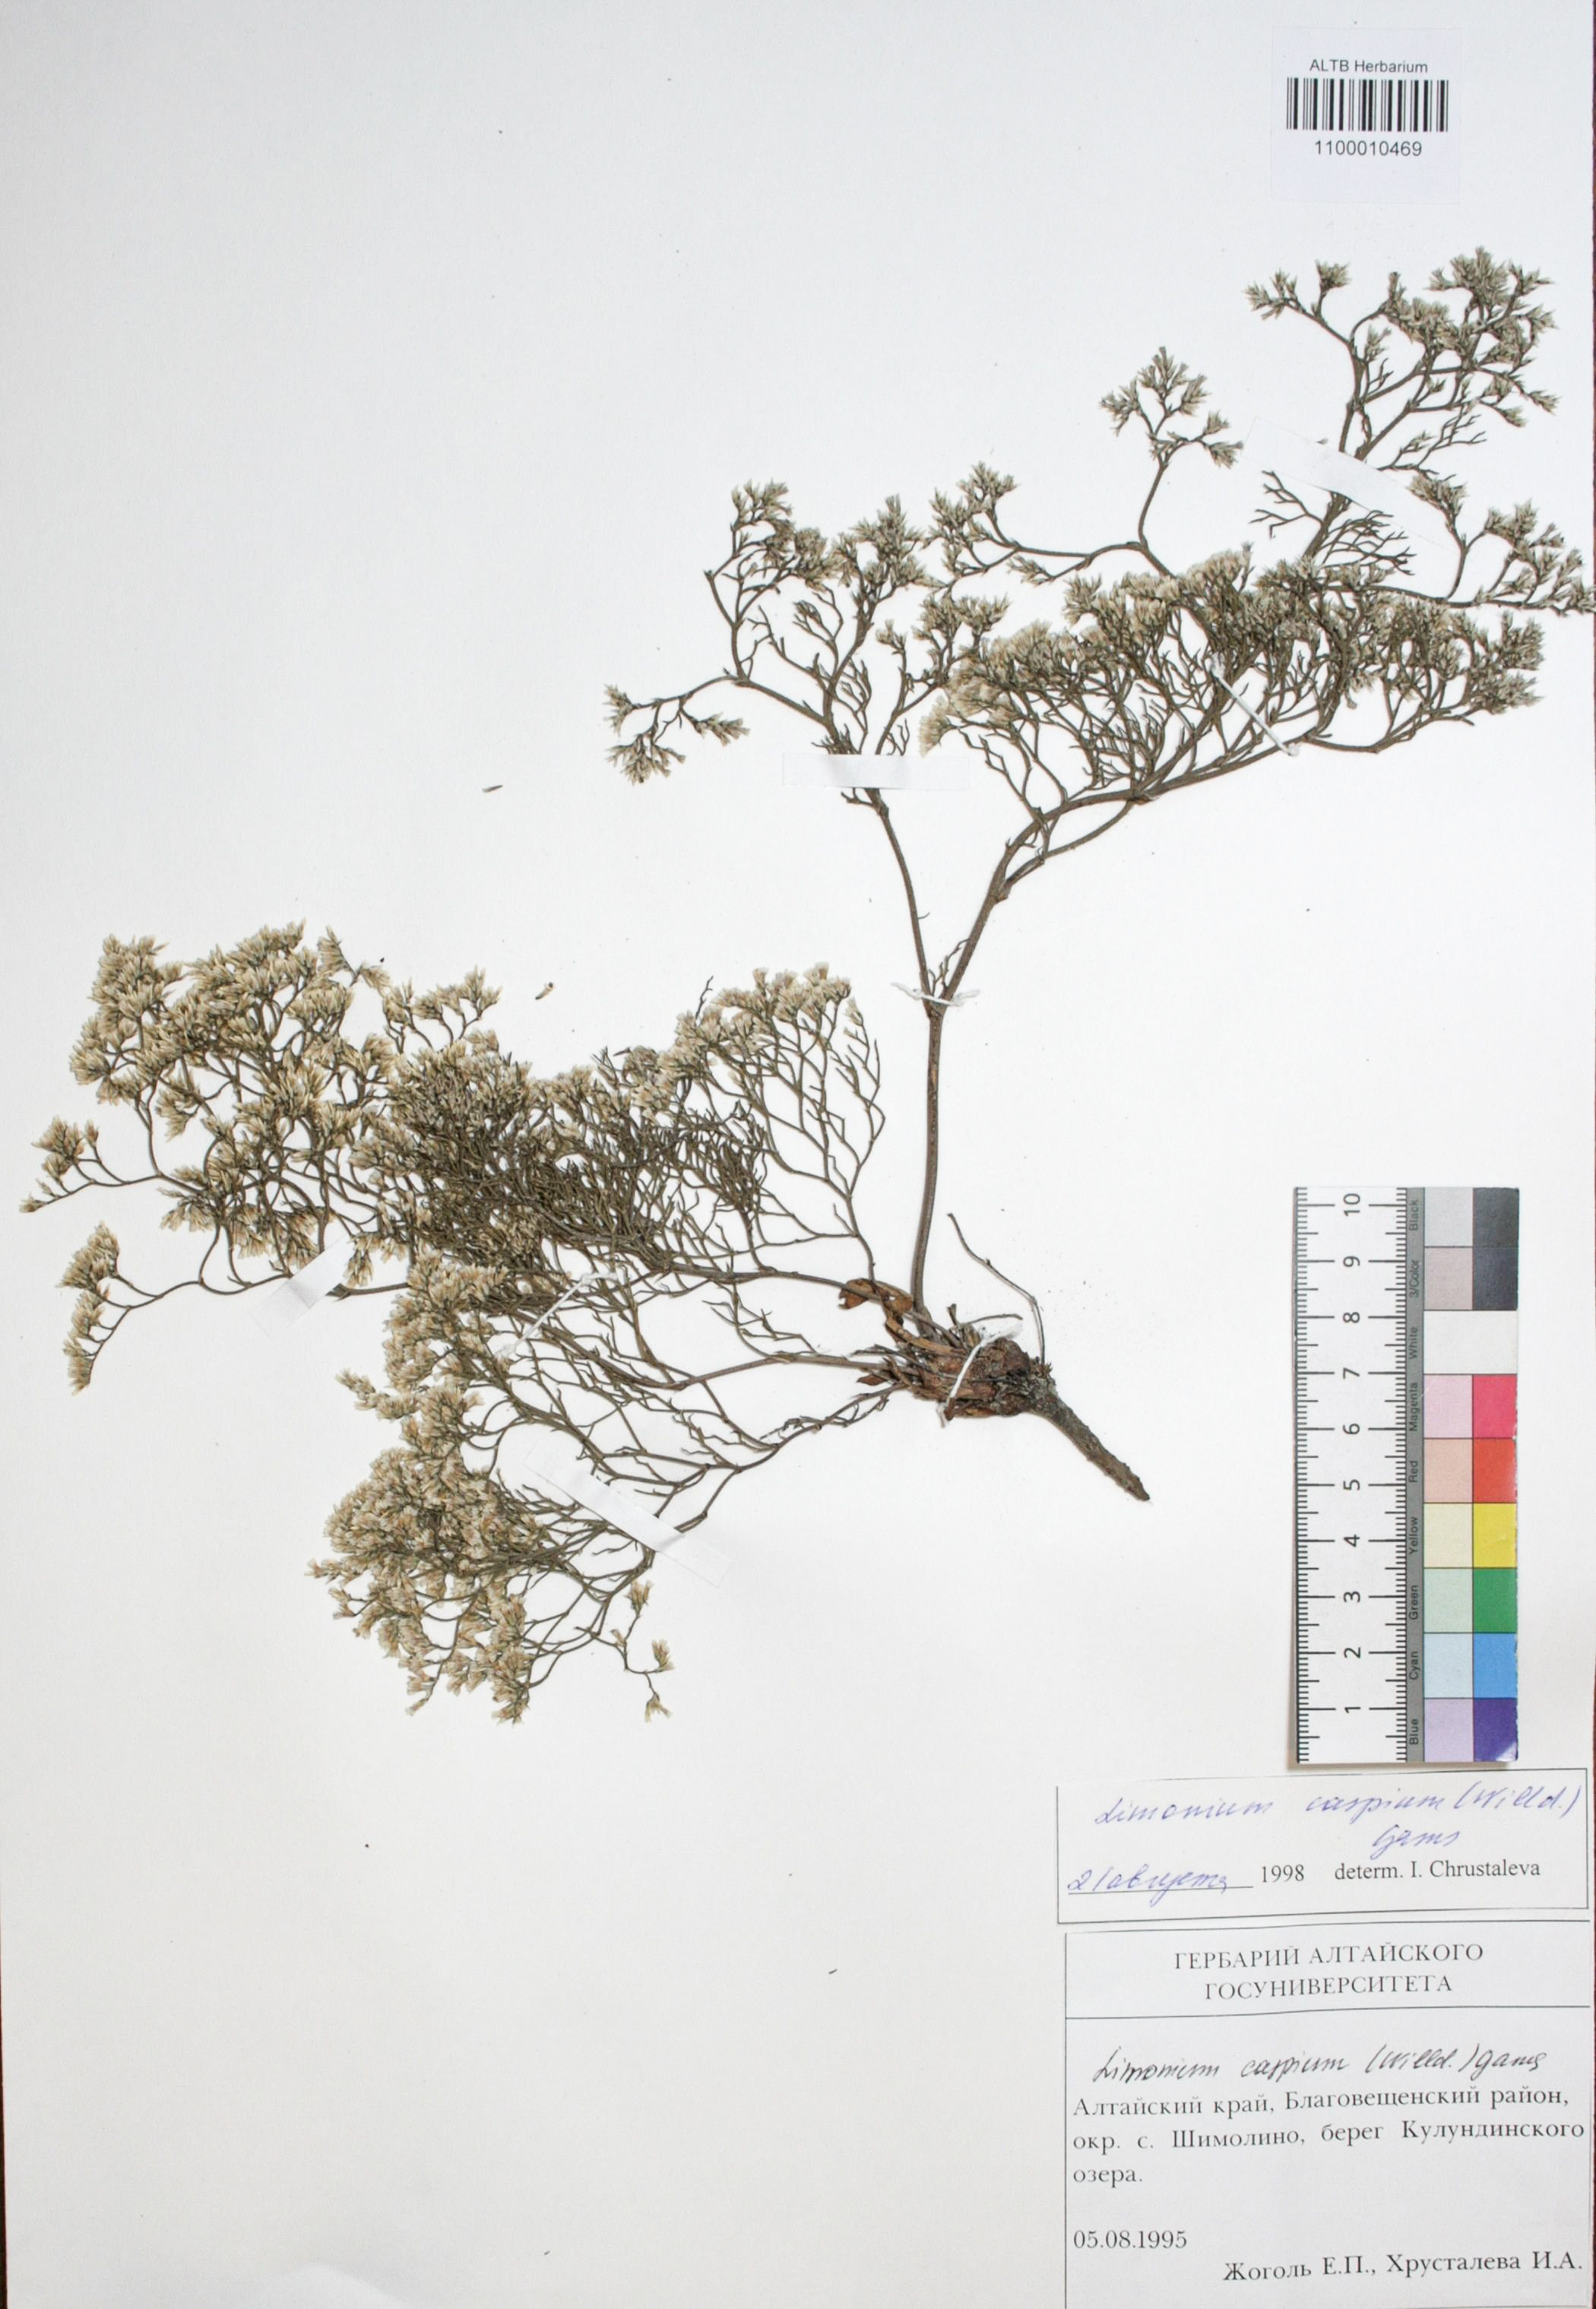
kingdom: Plantae
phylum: Tracheophyta
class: Magnoliopsida
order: Caryophyllales
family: Plumbaginaceae
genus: Limonium
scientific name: Limonium bellidifolium
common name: Matted sea-lavender
